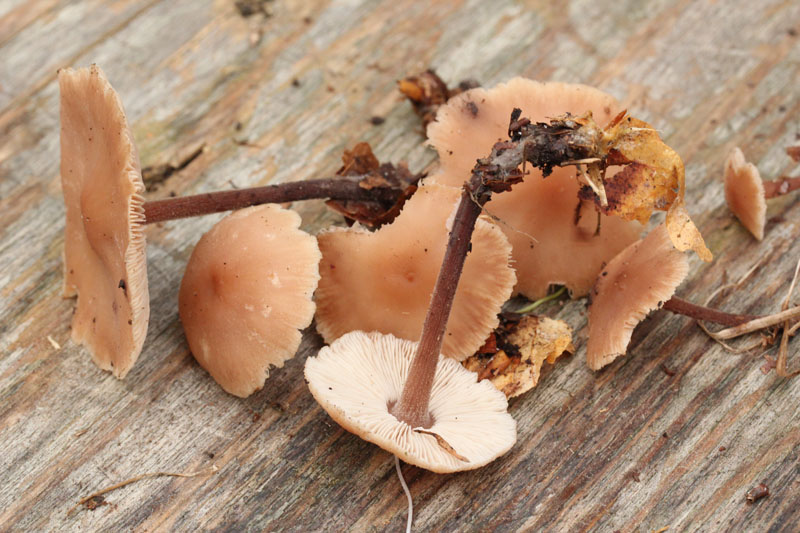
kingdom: Fungi
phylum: Basidiomycota
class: Agaricomycetes
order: Agaricales
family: Omphalotaceae
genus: Collybiopsis
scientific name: Collybiopsis confluens
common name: knippe-fladhat
